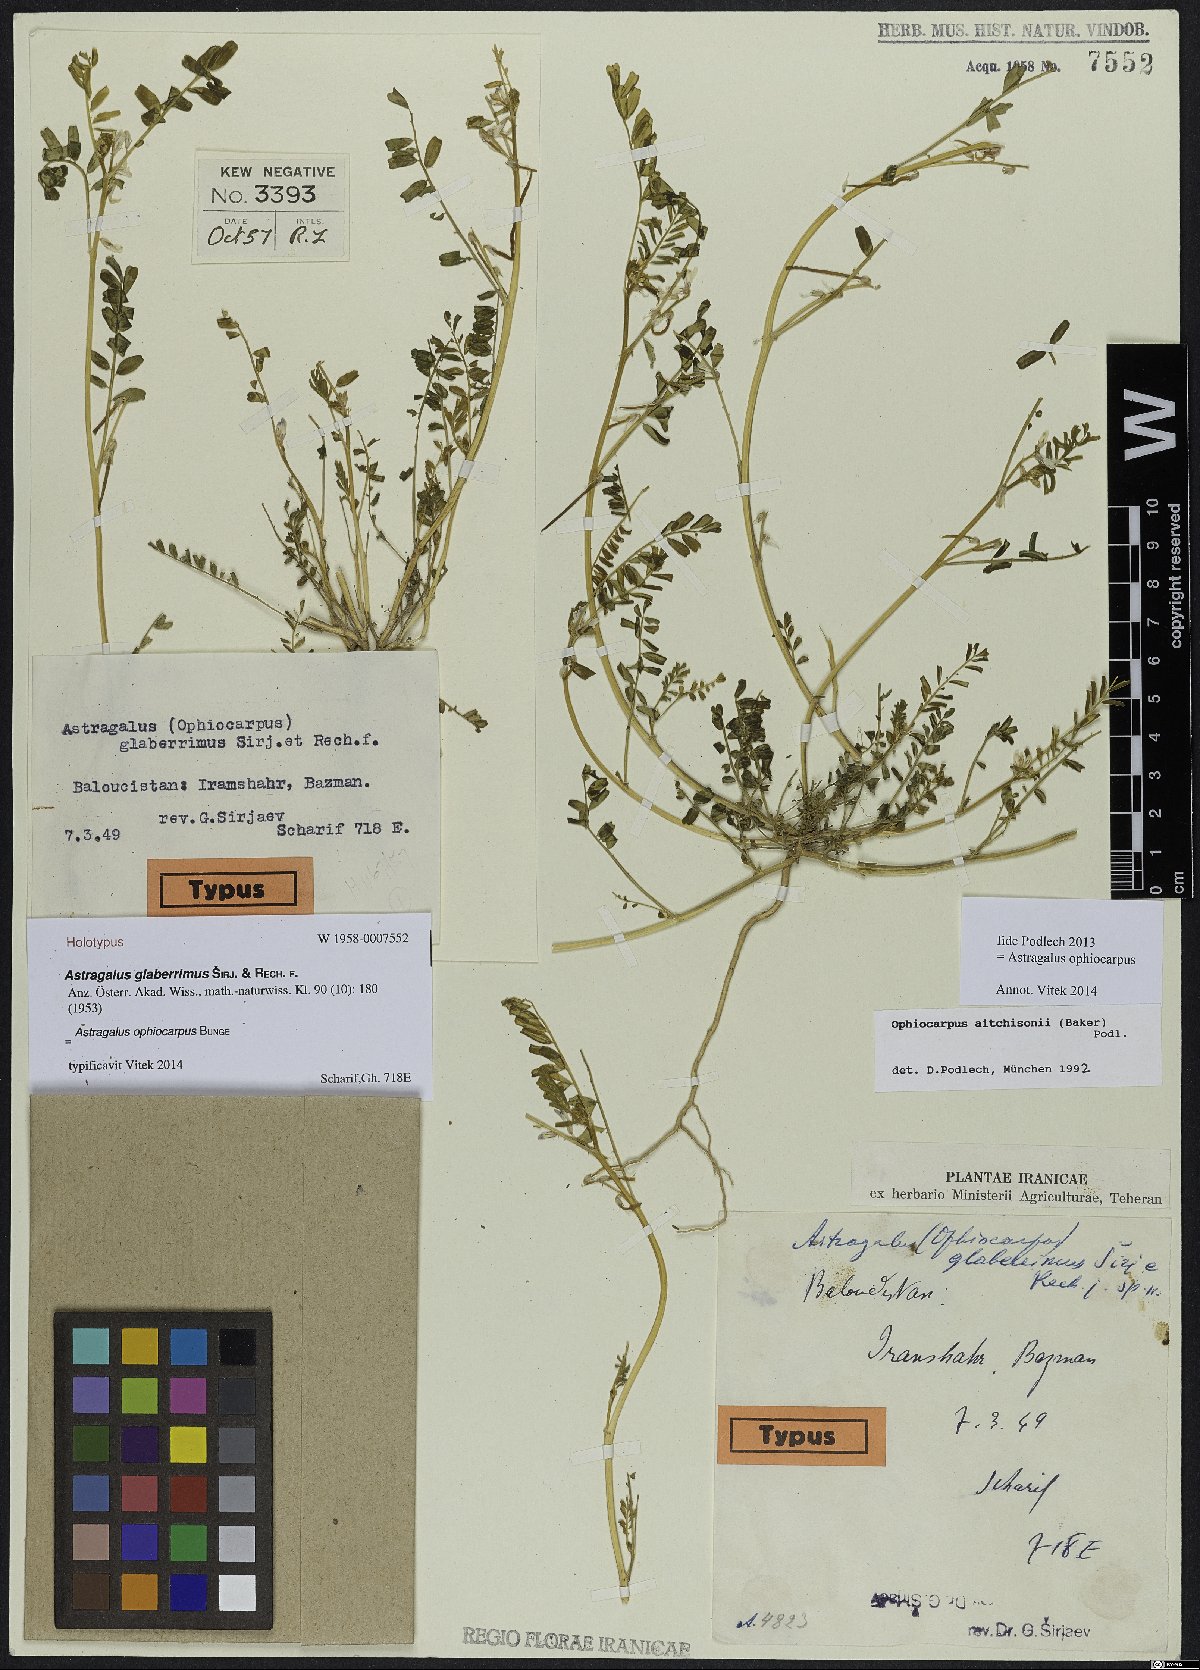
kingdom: Plantae
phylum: Tracheophyta
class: Magnoliopsida
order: Fabales
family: Fabaceae
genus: Astragalus
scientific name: Astragalus ophiocarpus
